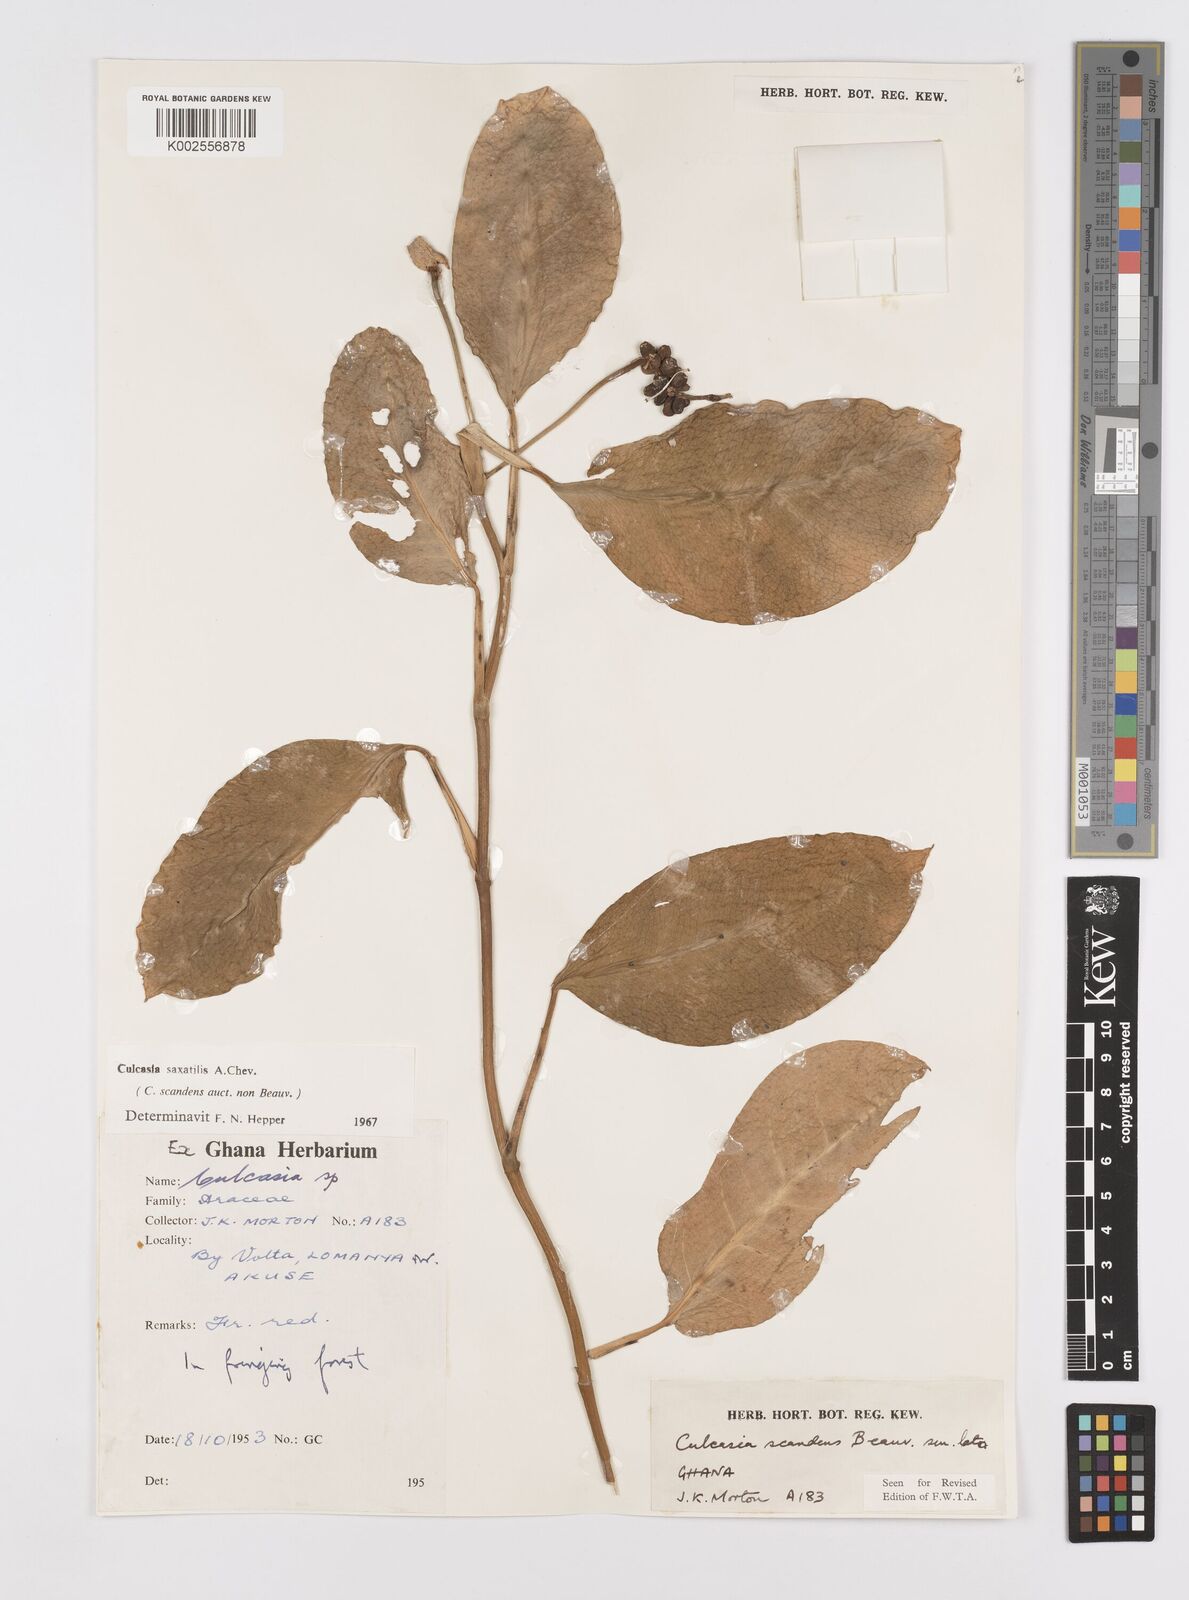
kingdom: Plantae
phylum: Tracheophyta
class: Liliopsida
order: Alismatales
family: Araceae
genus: Culcasia
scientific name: Culcasia scandens
